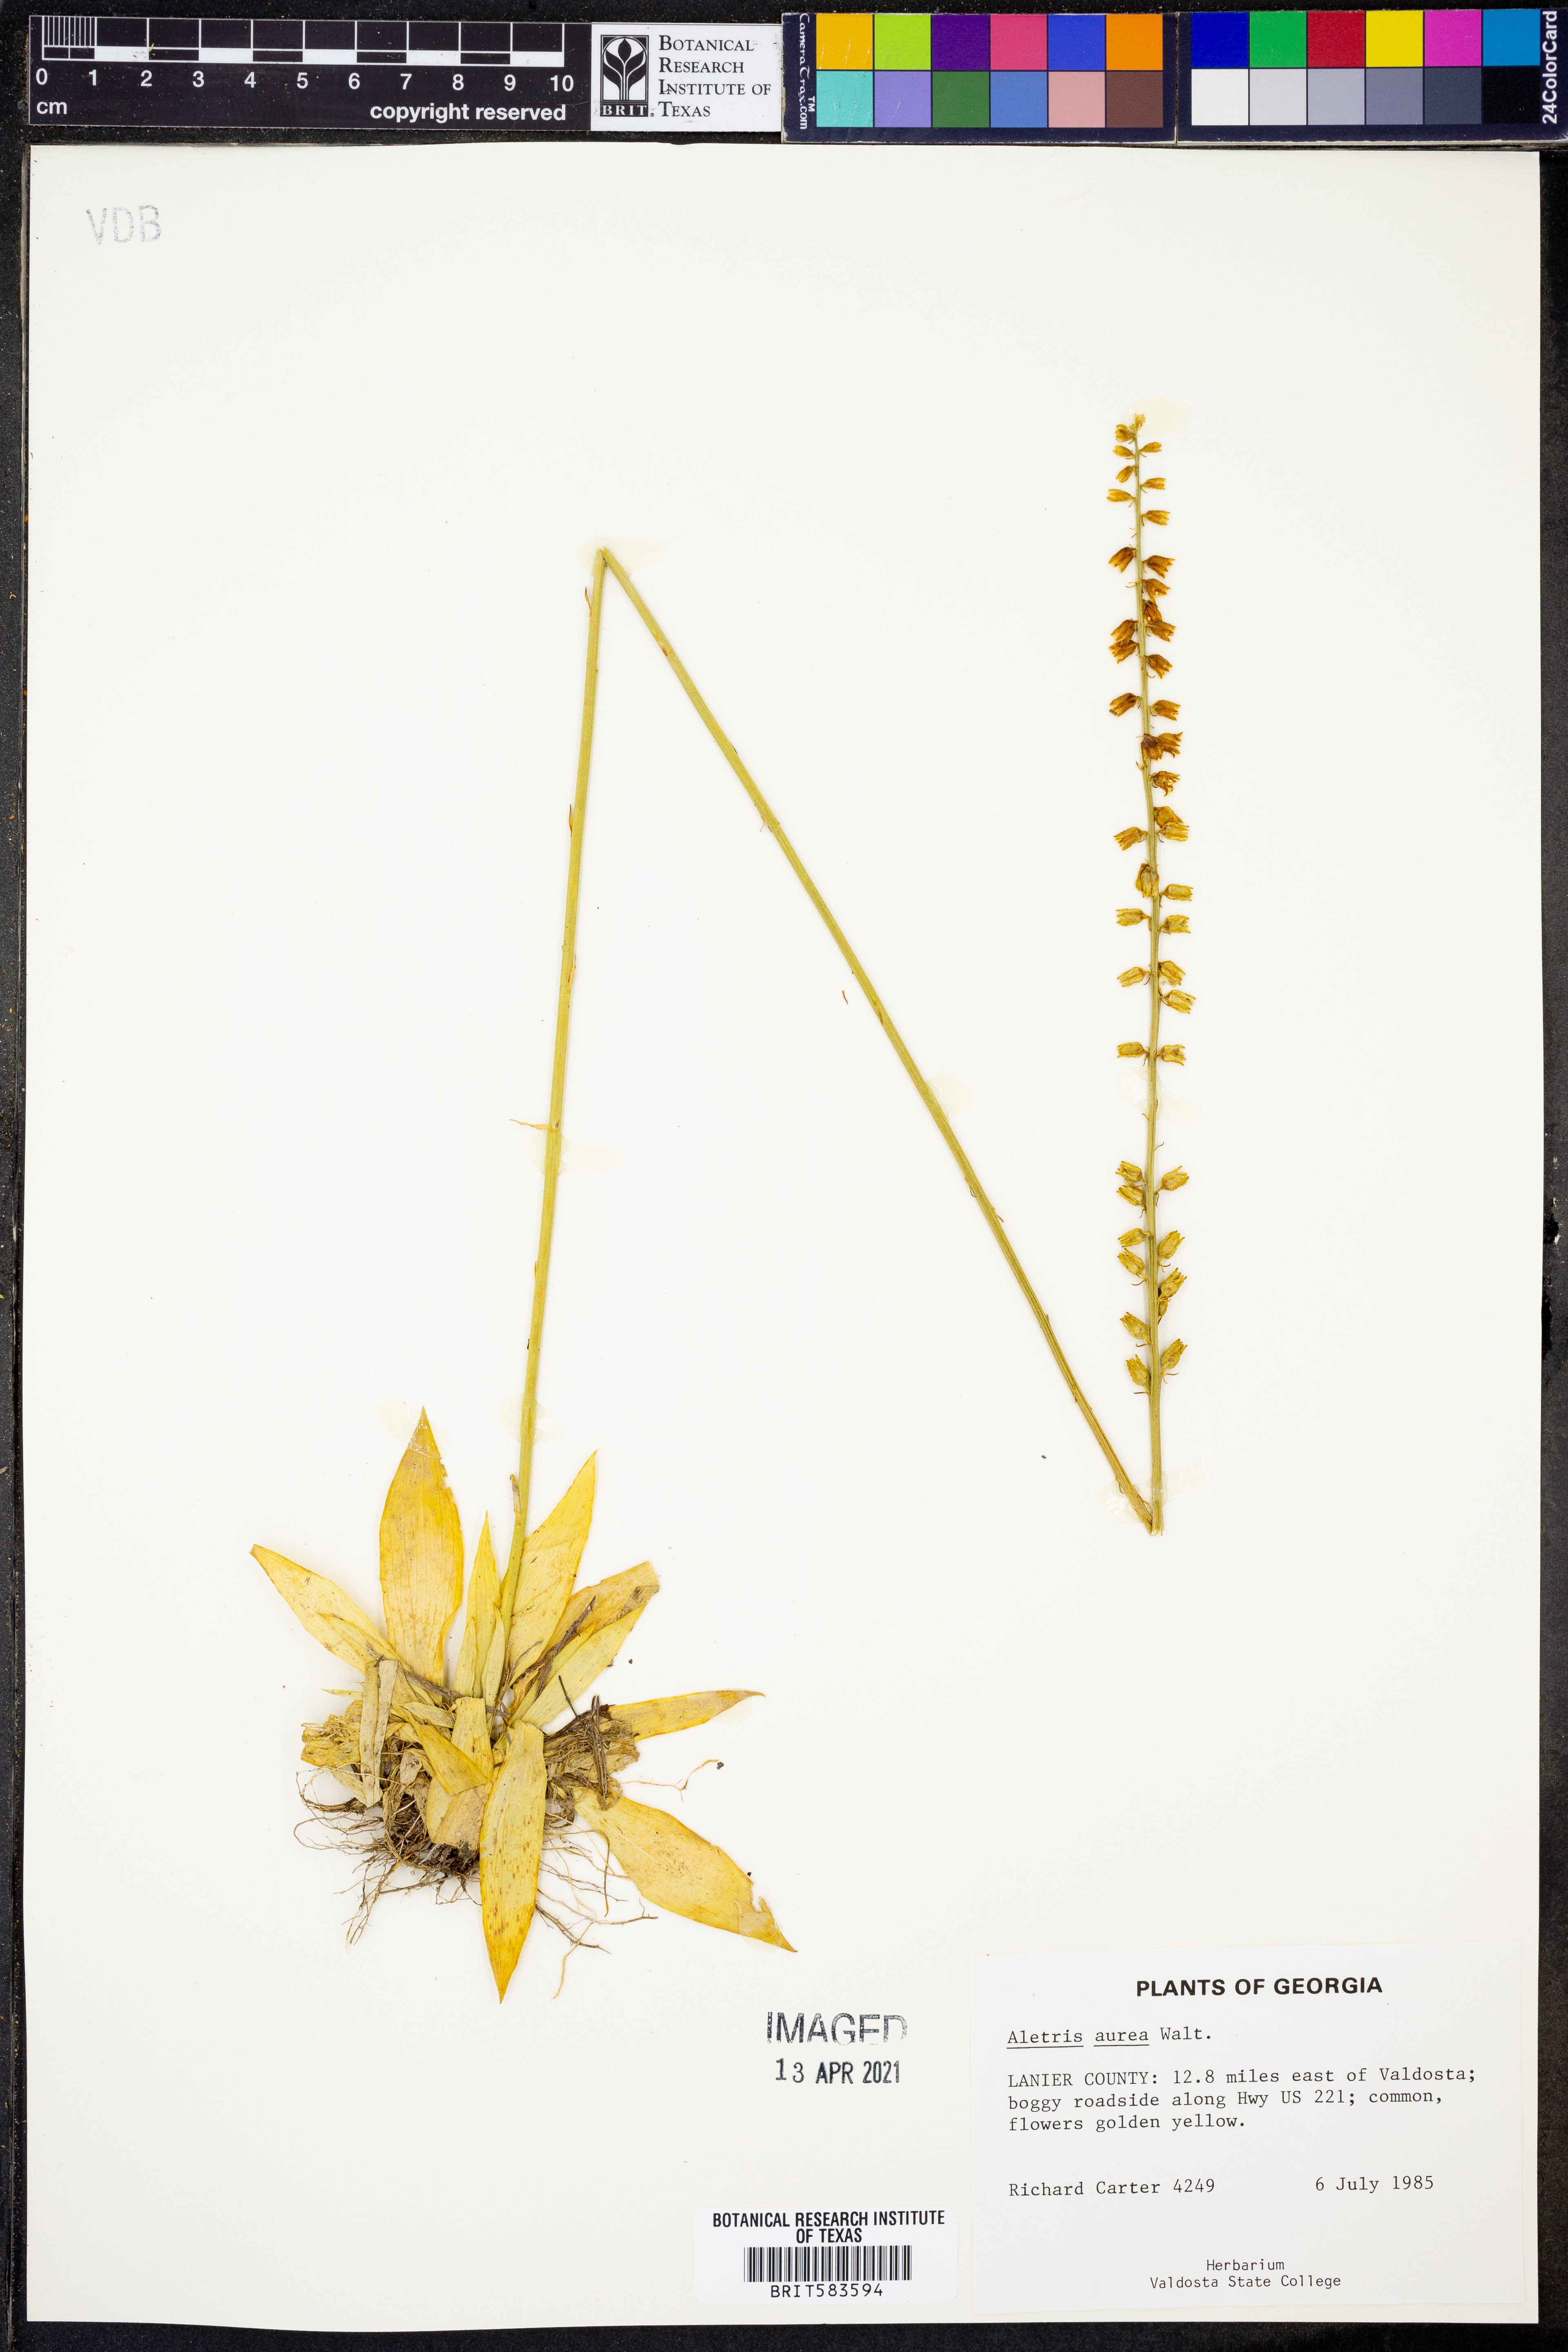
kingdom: Plantae
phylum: Tracheophyta
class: Liliopsida
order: Dioscoreales
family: Nartheciaceae
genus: Aletris
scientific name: Aletris aurea
